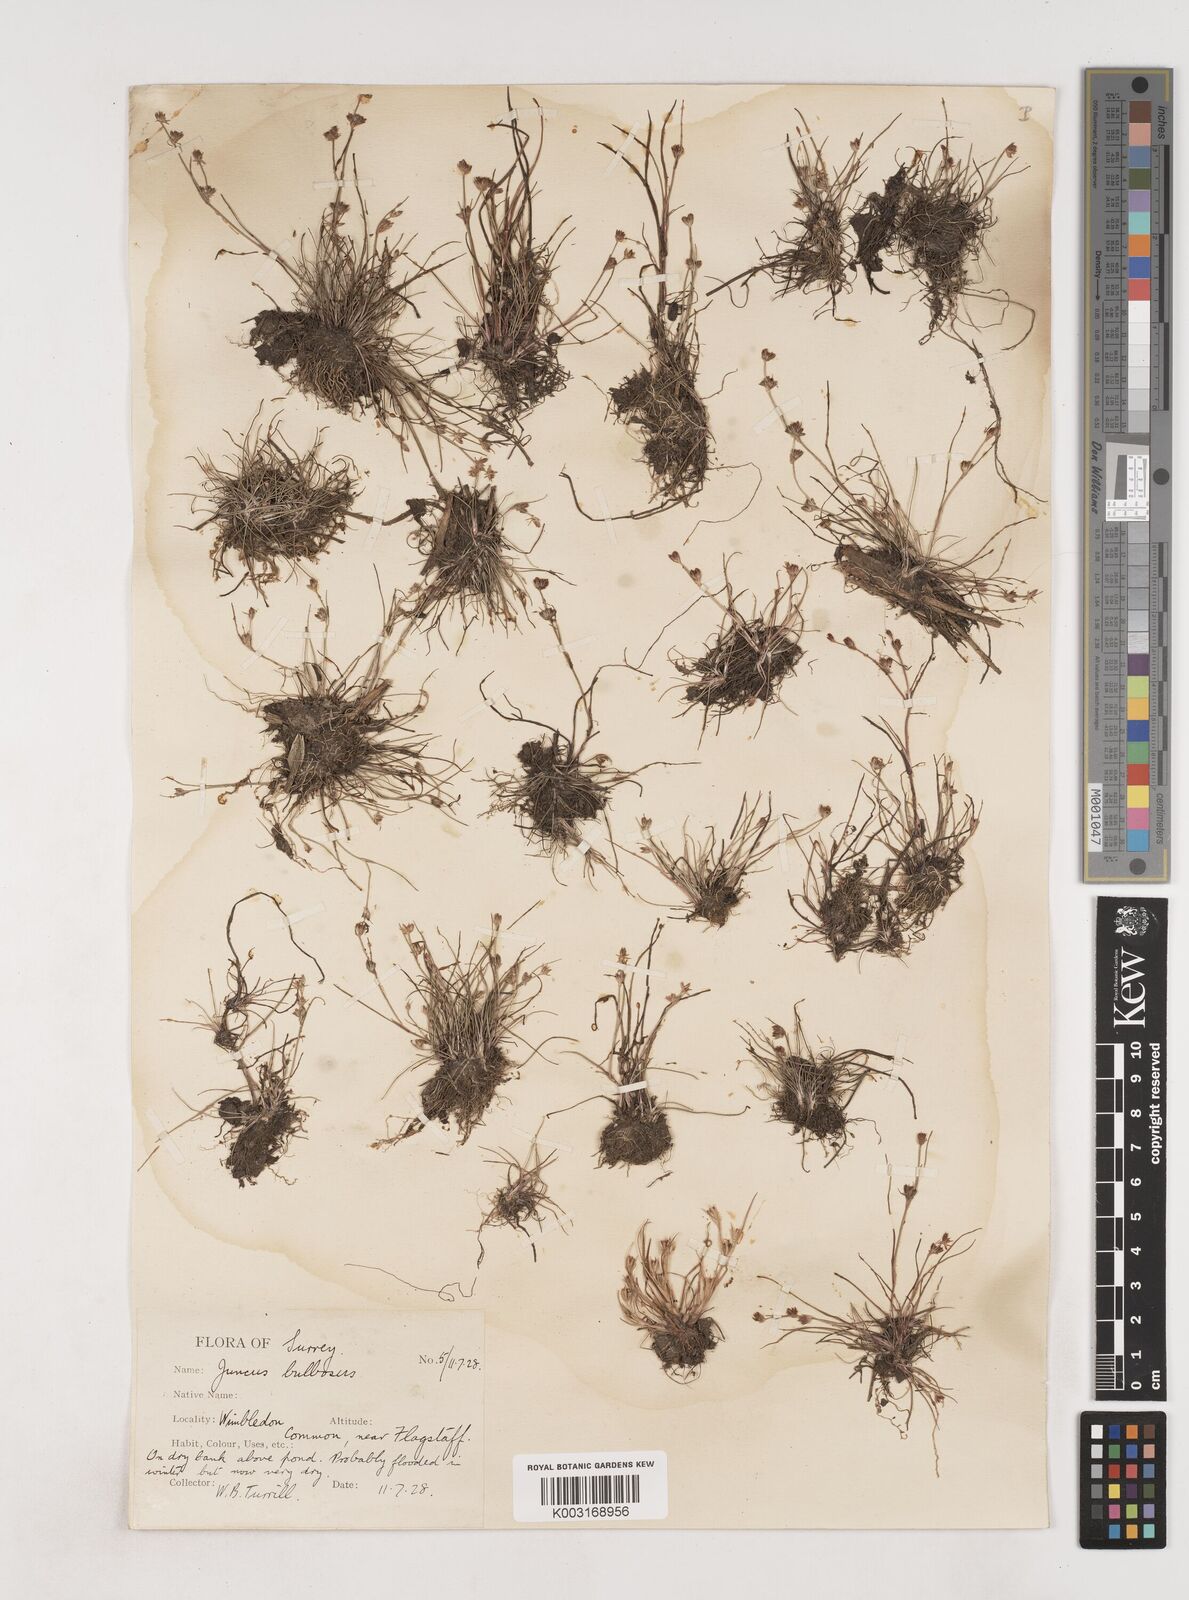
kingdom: Plantae
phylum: Tracheophyta
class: Liliopsida
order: Poales
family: Juncaceae
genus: Juncus
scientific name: Juncus bulbosus
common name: Bulbous rush
